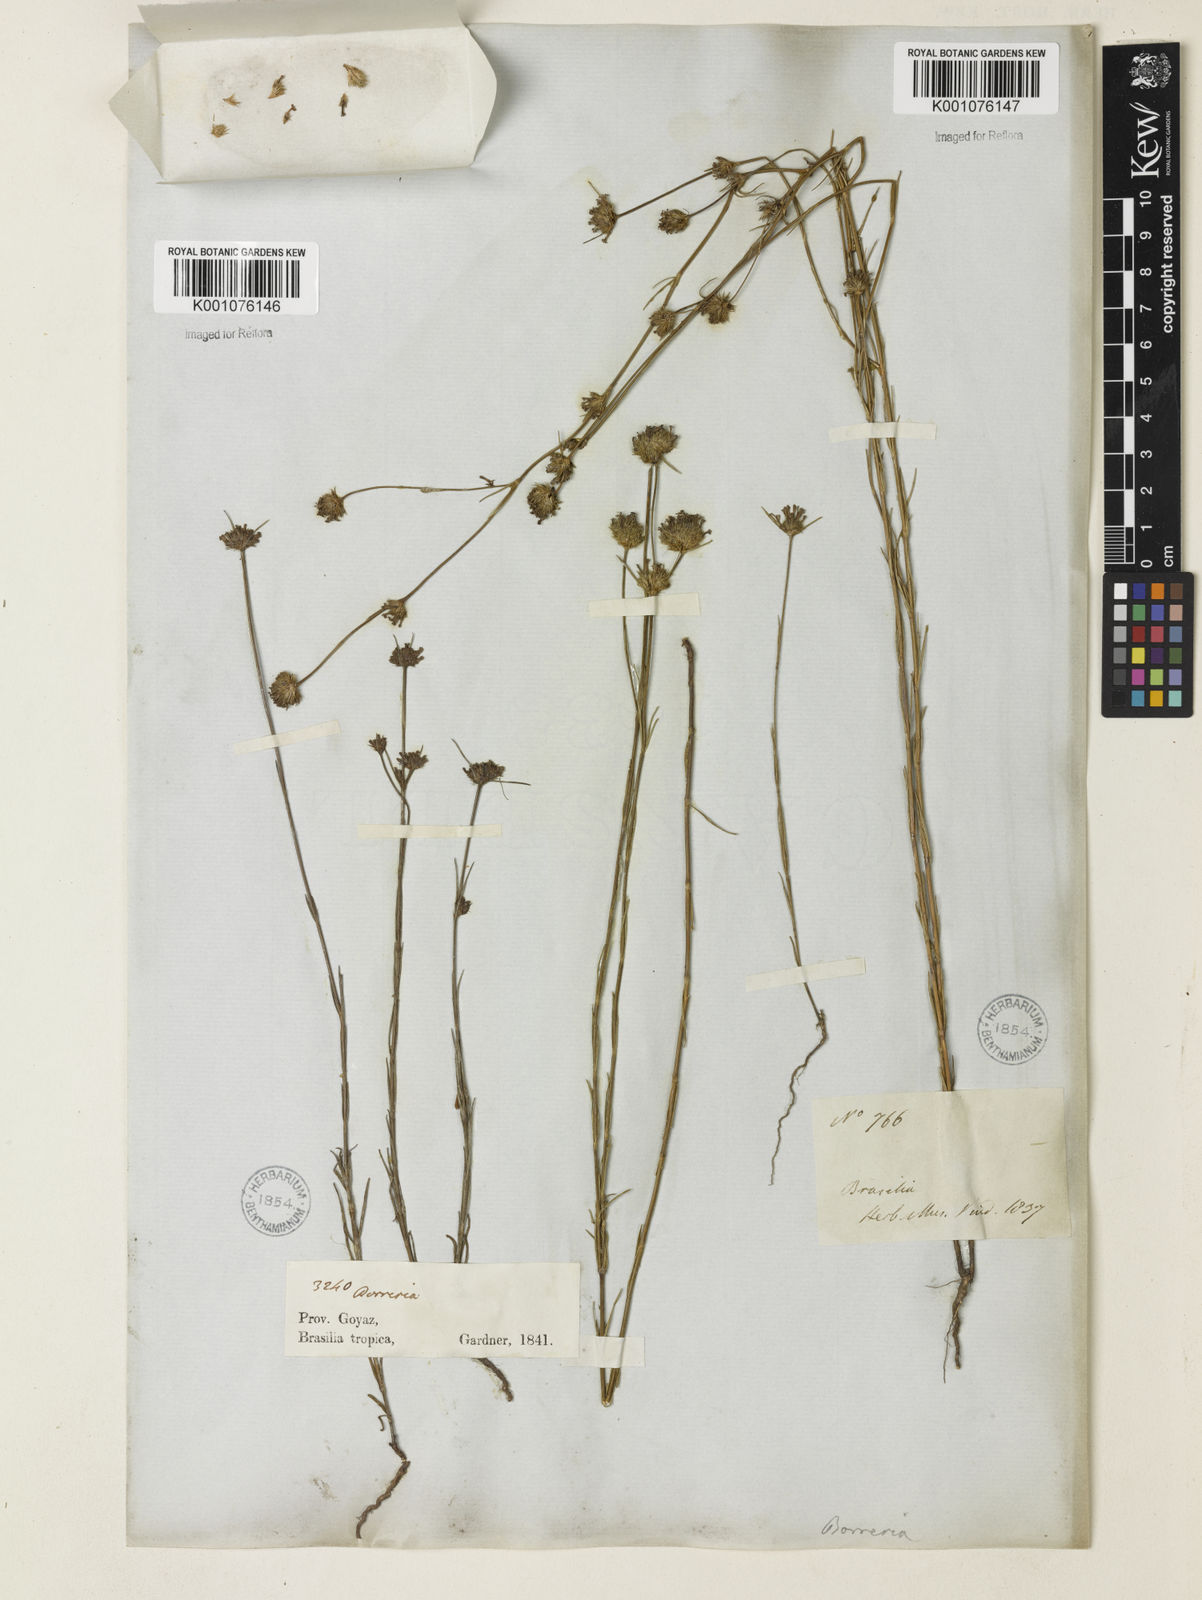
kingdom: Plantae
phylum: Tracheophyta
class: Magnoliopsida
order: Gentianales
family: Rubiaceae
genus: Spermacoce
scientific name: Spermacoce gracillima
